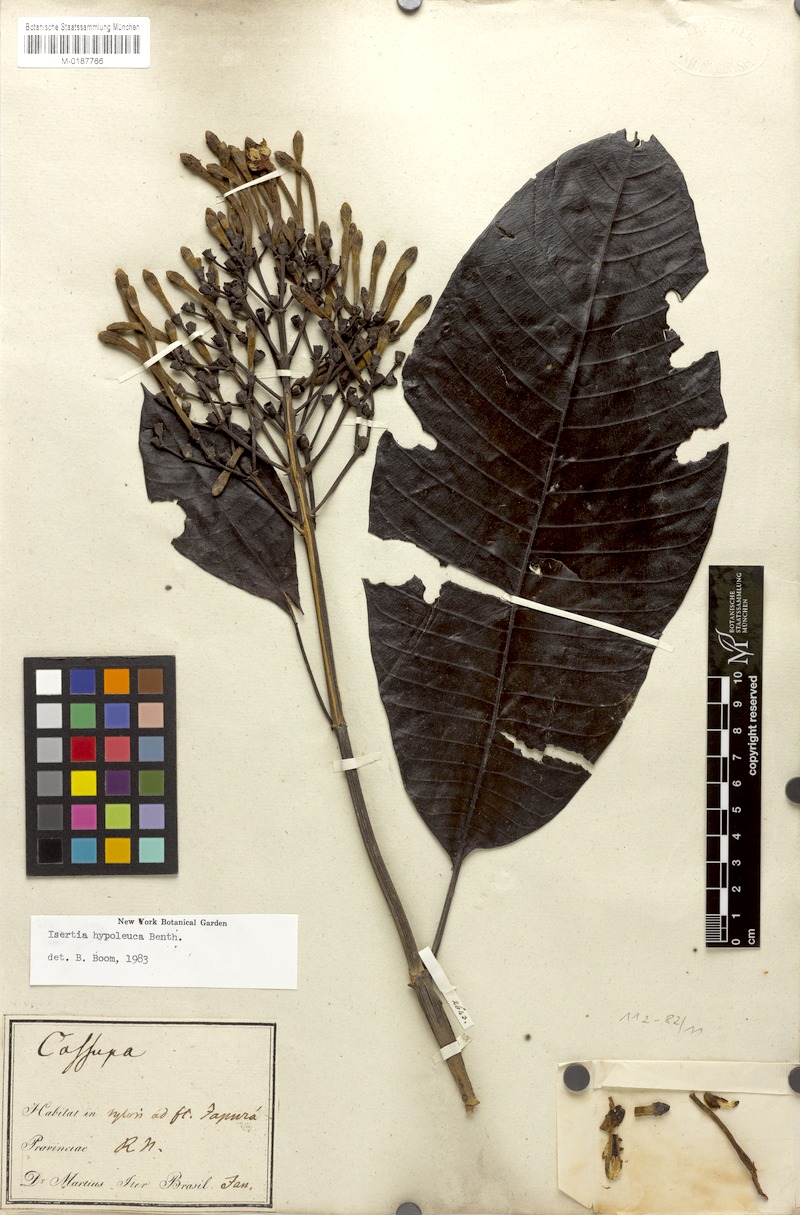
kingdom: Plantae
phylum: Tracheophyta
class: Magnoliopsida
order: Gentianales
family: Rubiaceae
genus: Isertia
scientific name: Isertia hypoleuca
